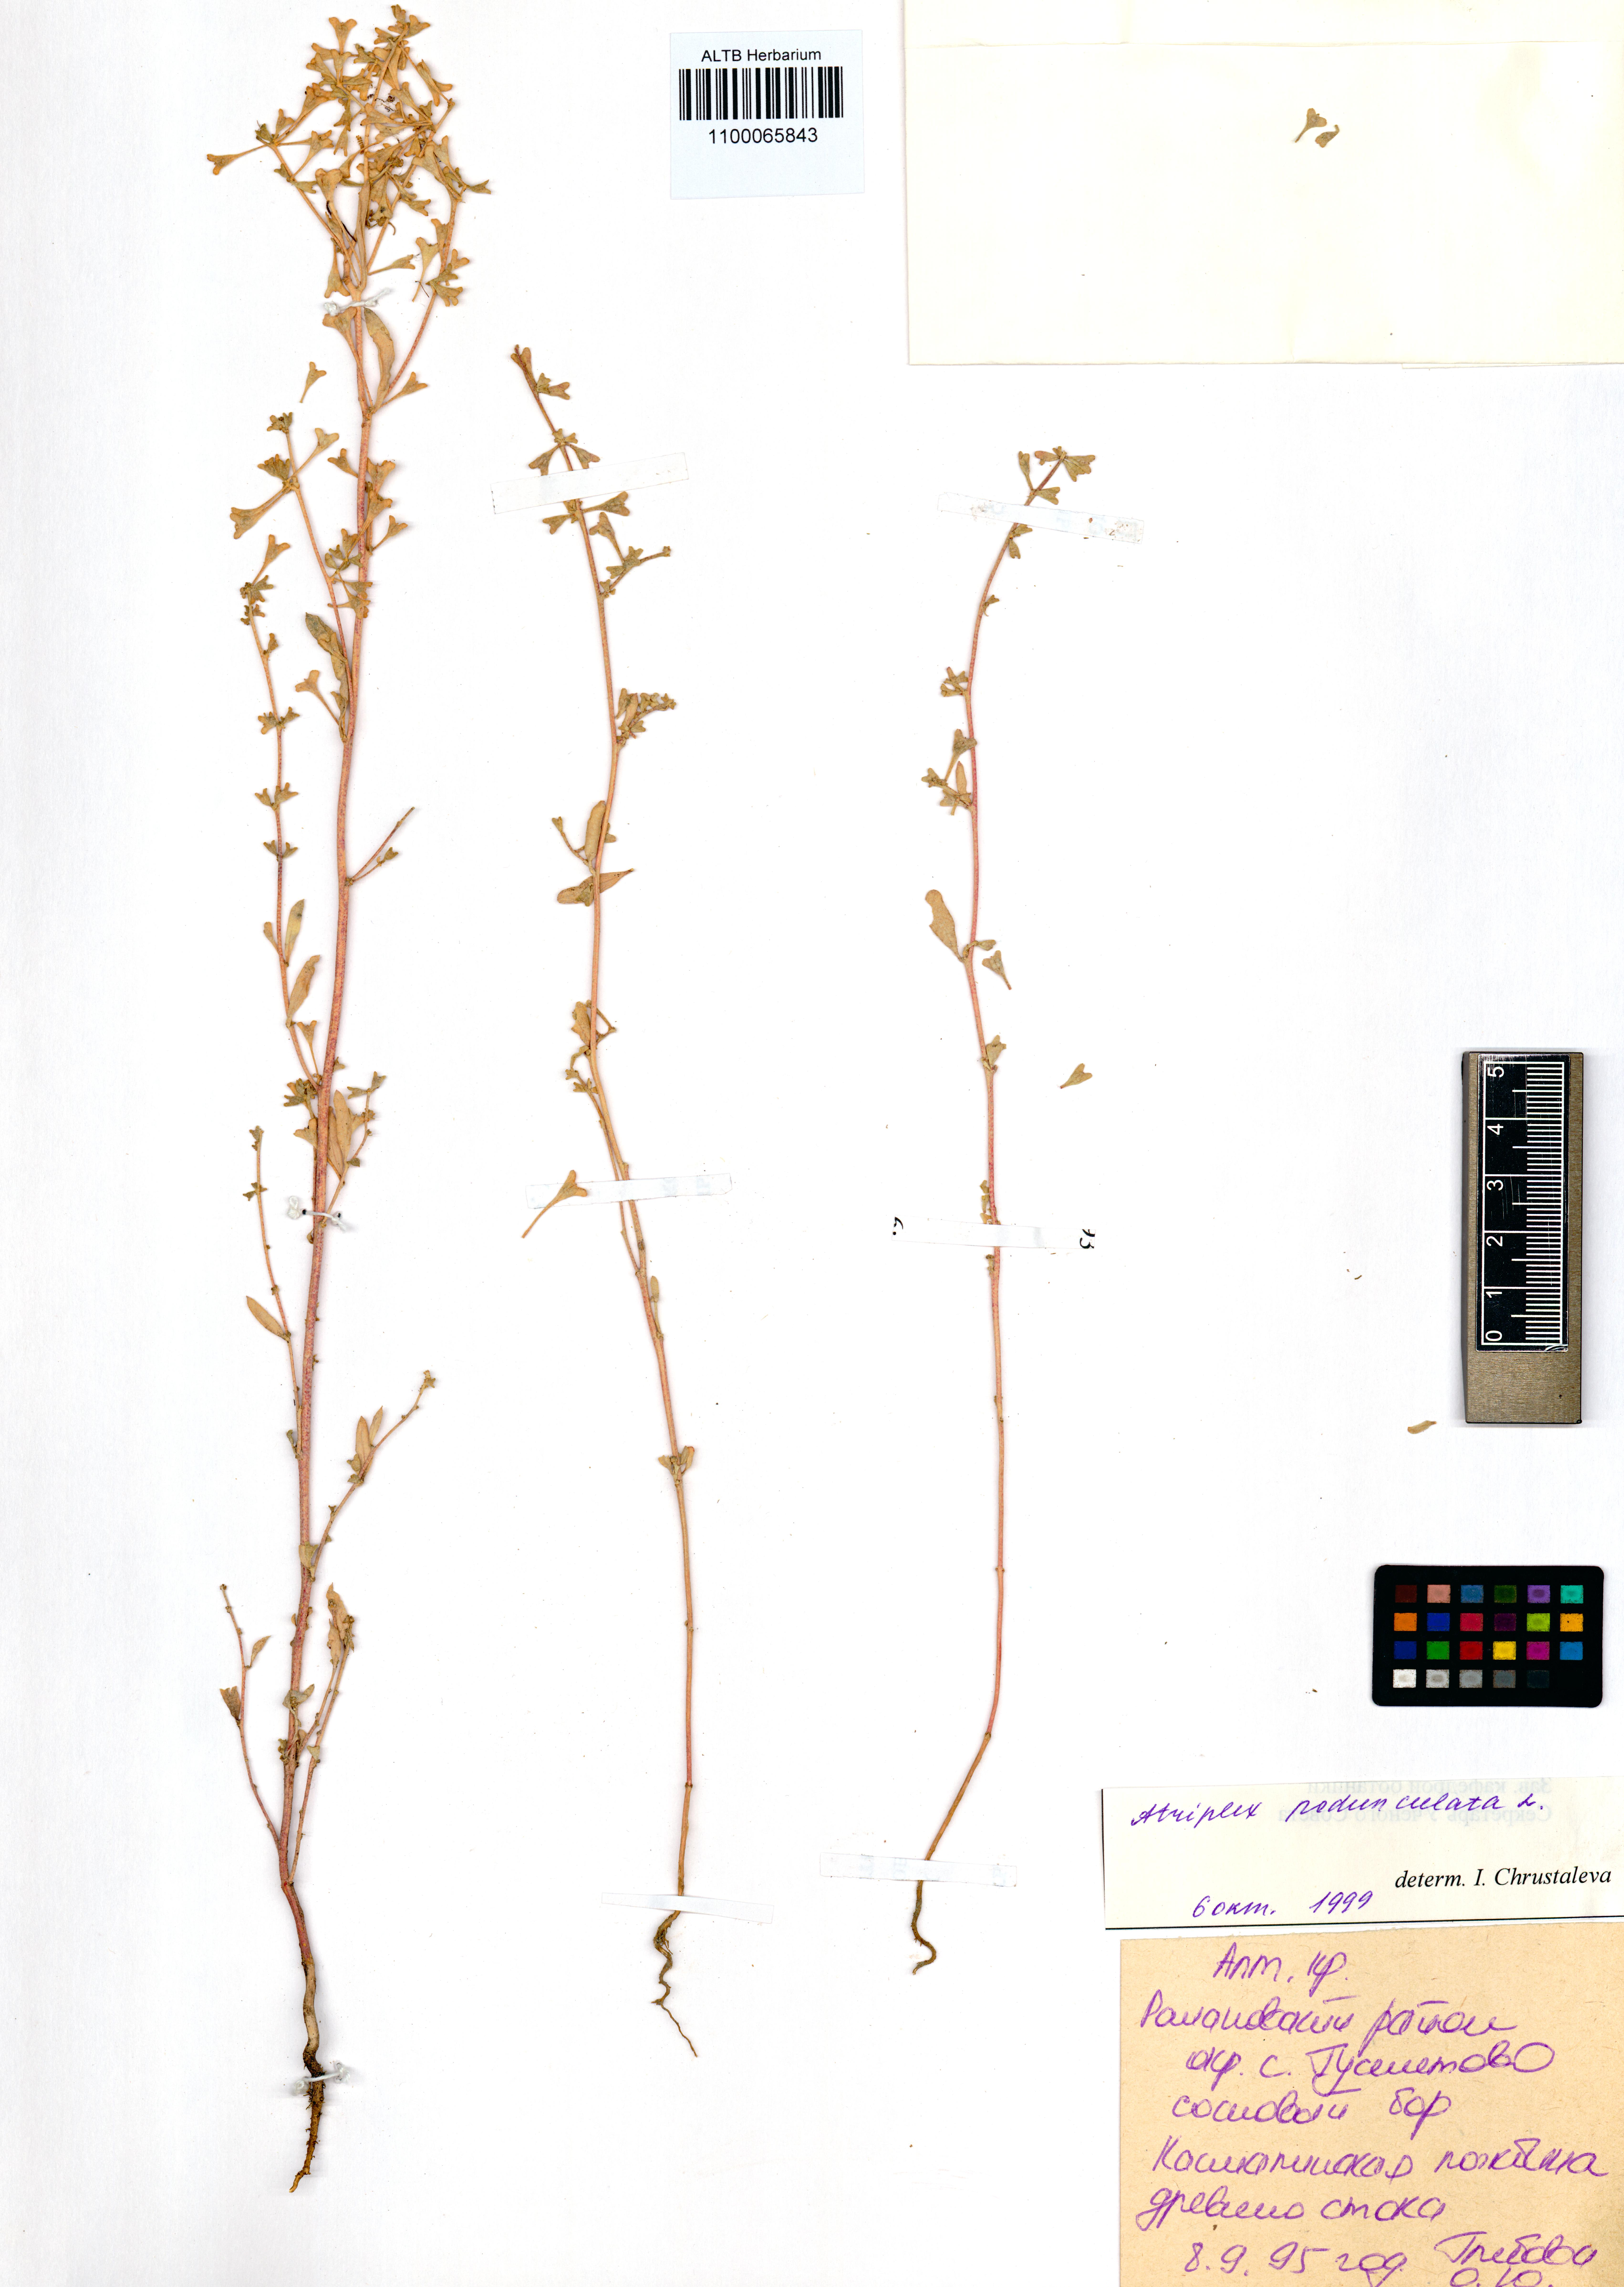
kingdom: Plantae
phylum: Tracheophyta
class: Magnoliopsida
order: Caryophyllales
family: Amaranthaceae
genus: Halimione
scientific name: Halimione pedunculata
